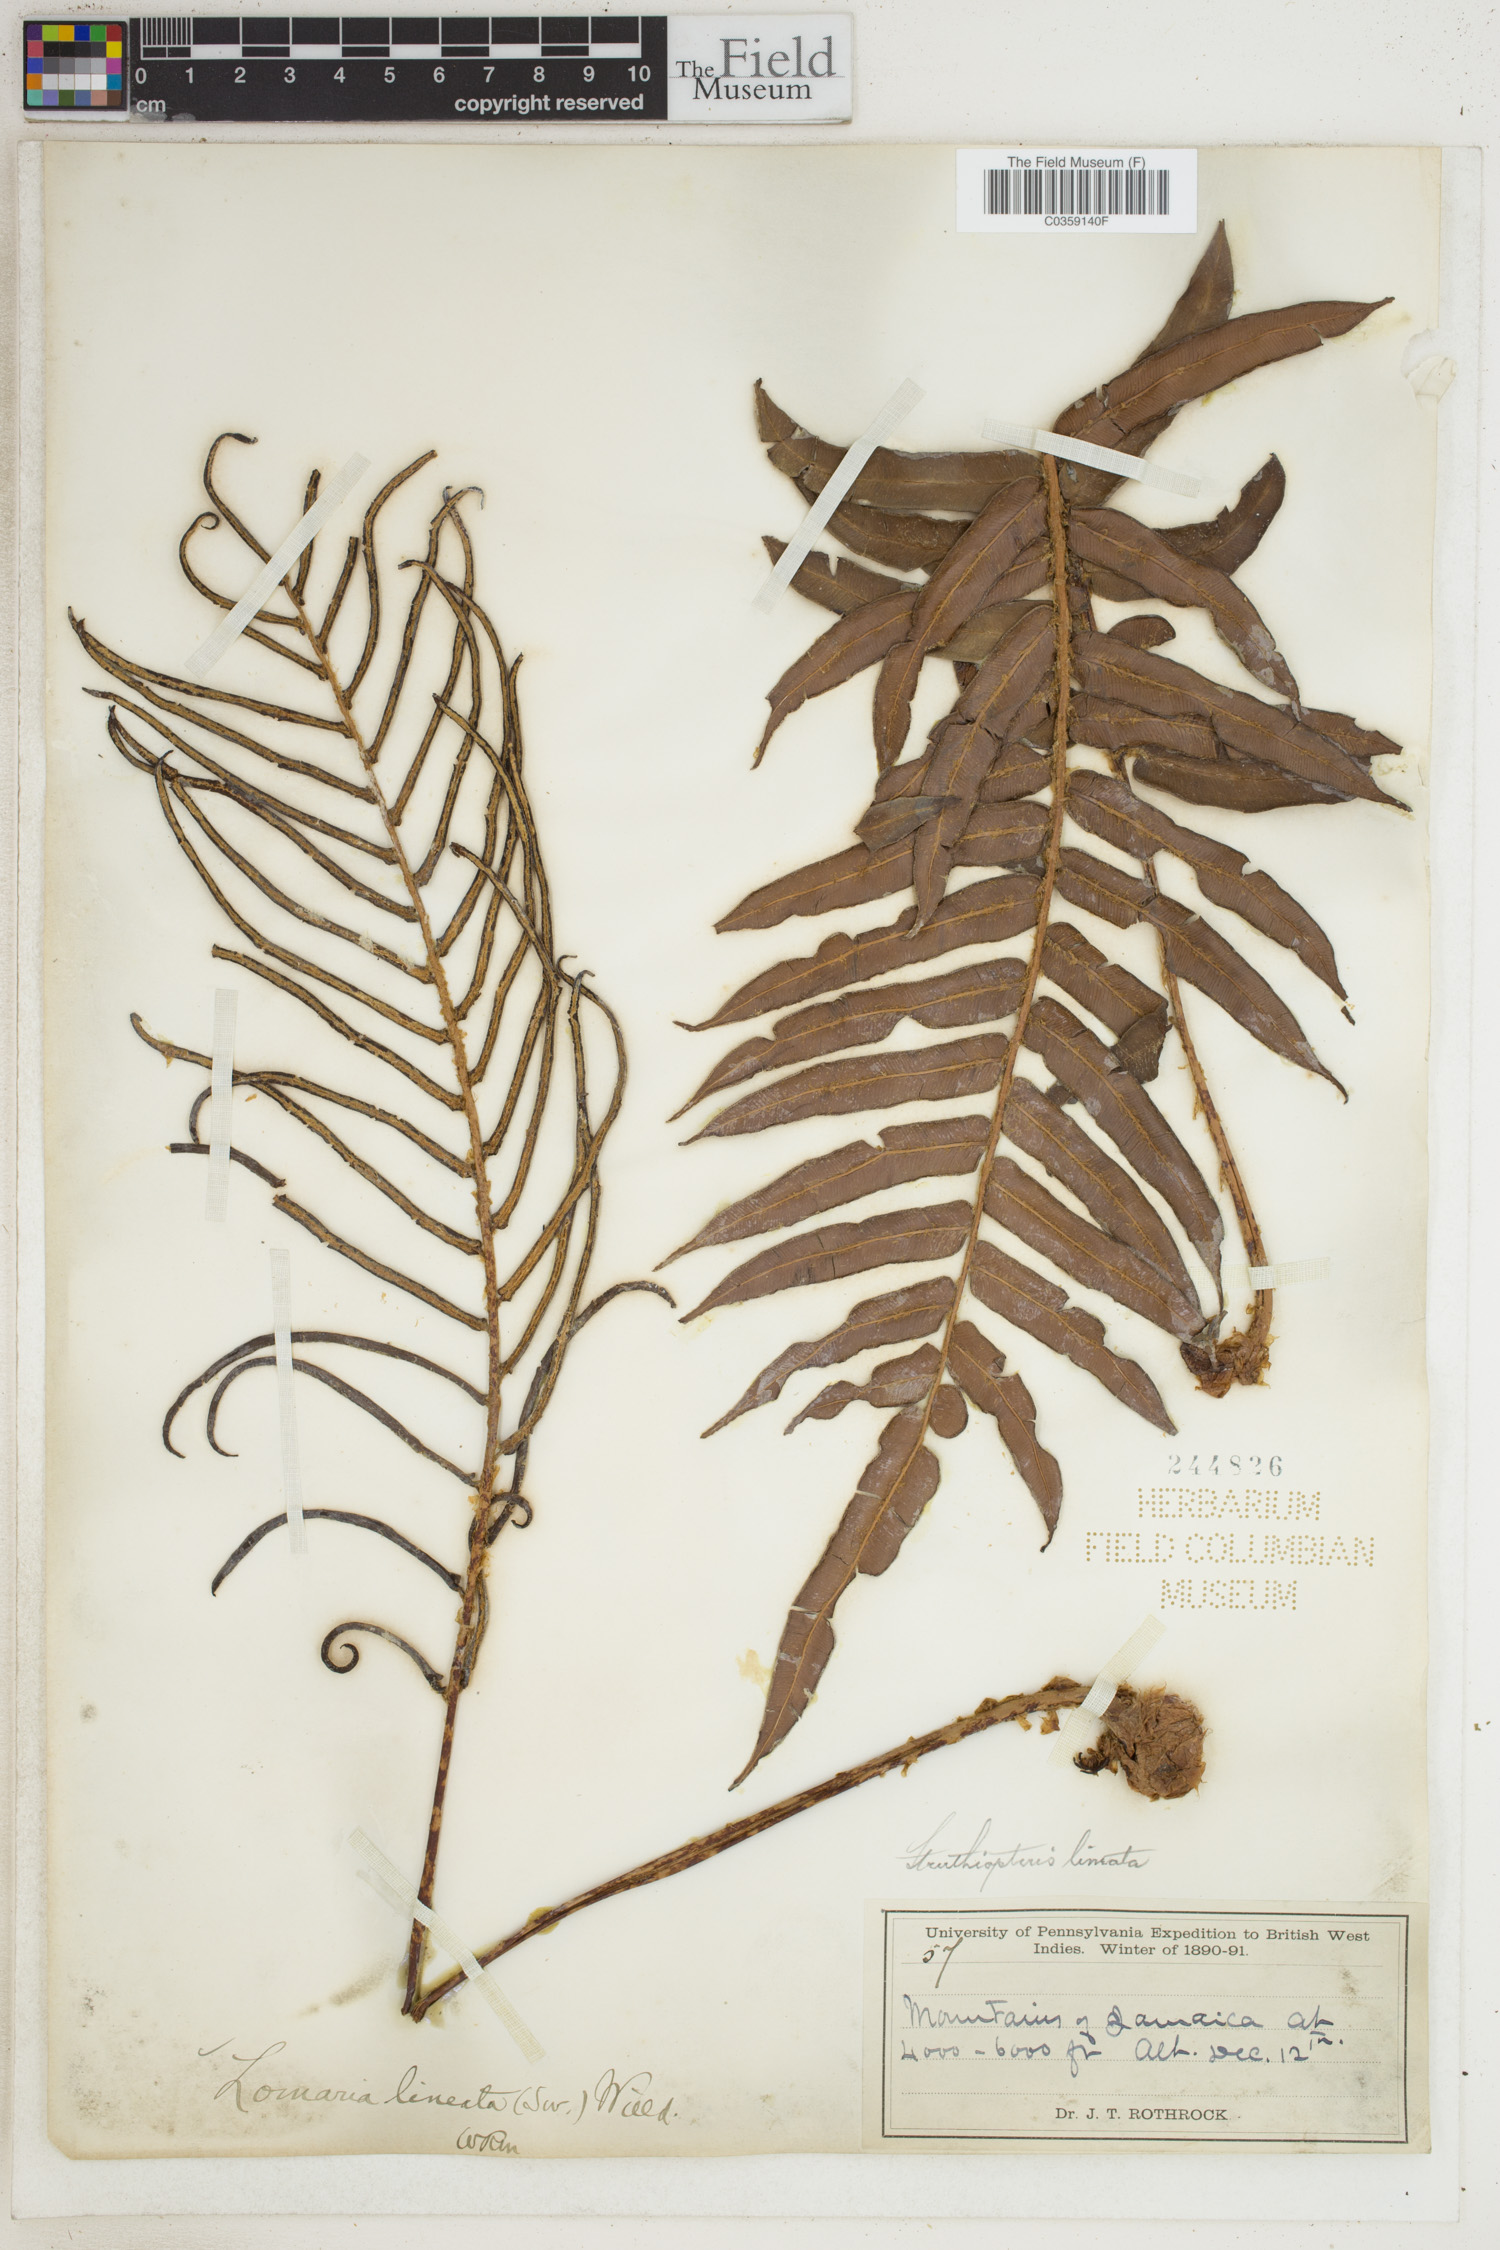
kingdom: Plantae
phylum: Tracheophyta
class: Polypodiopsida
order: Polypodiales
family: Blechnaceae
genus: Parablechnum
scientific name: Parablechnum lineatum
